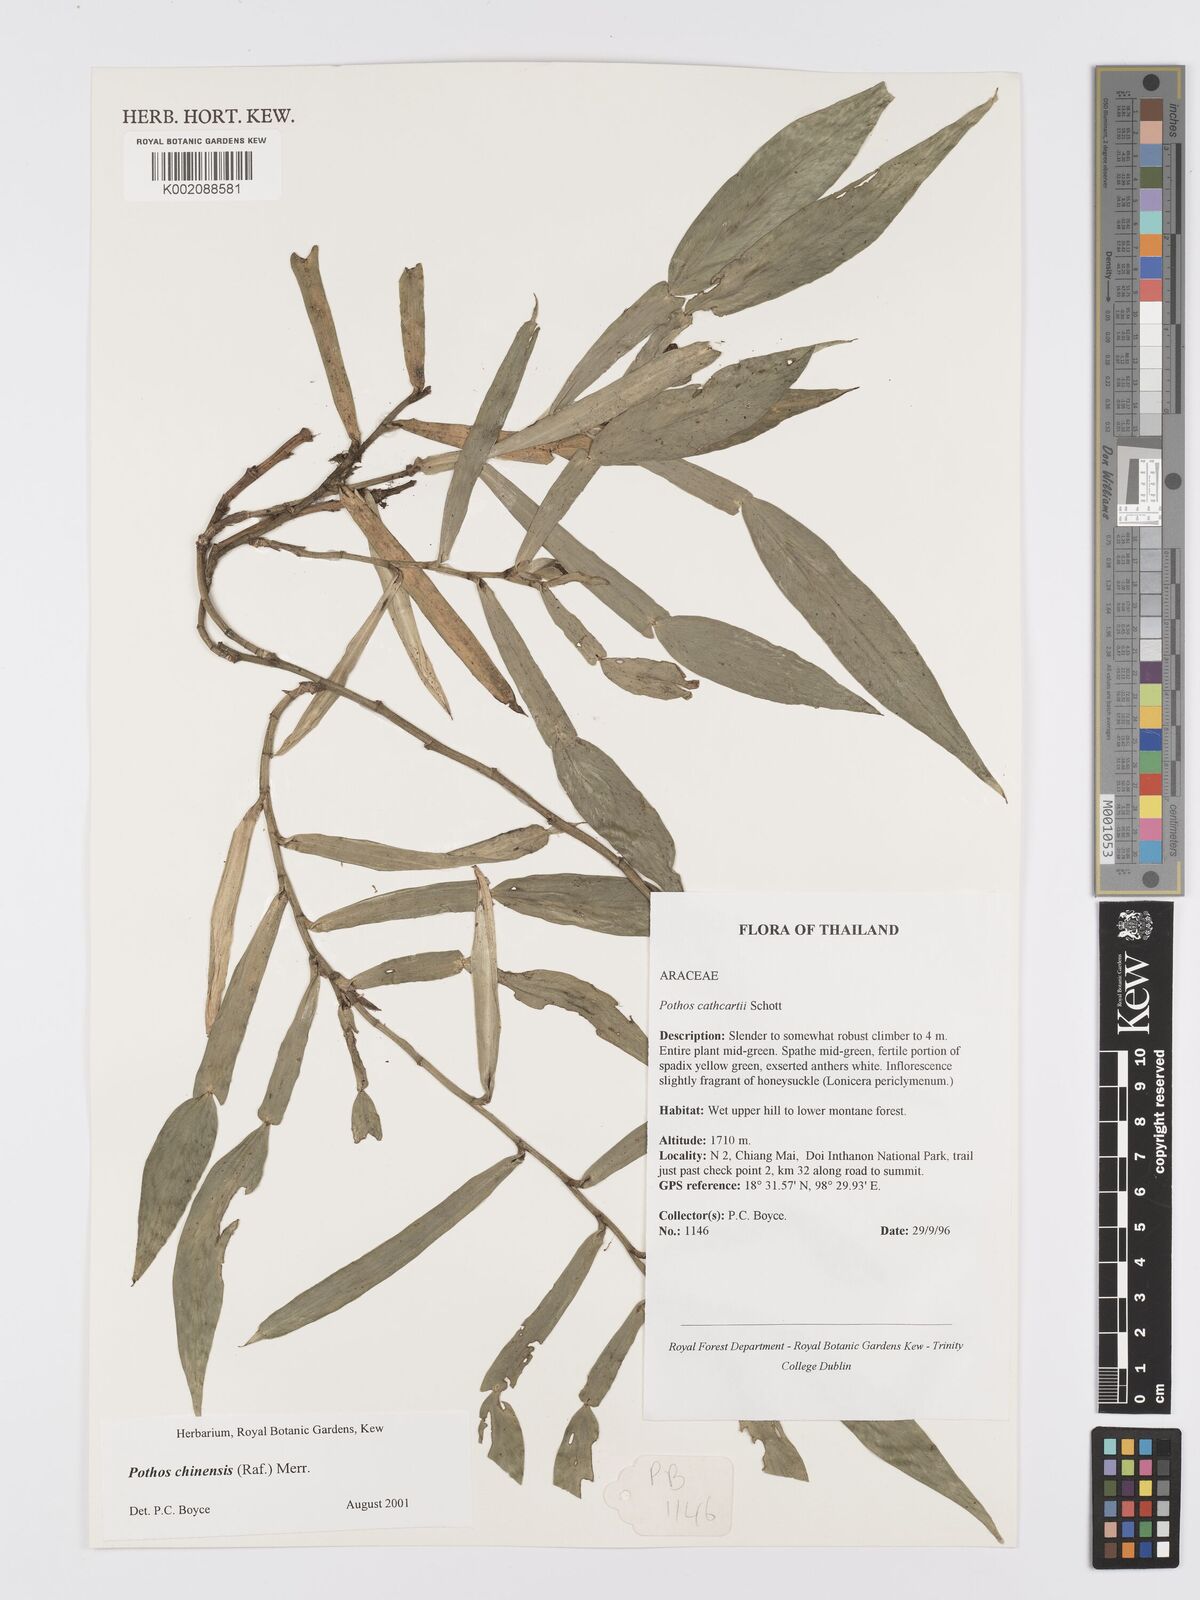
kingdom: Plantae
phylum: Tracheophyta
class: Liliopsida
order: Alismatales
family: Araceae
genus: Pothos
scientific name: Pothos chinensis
